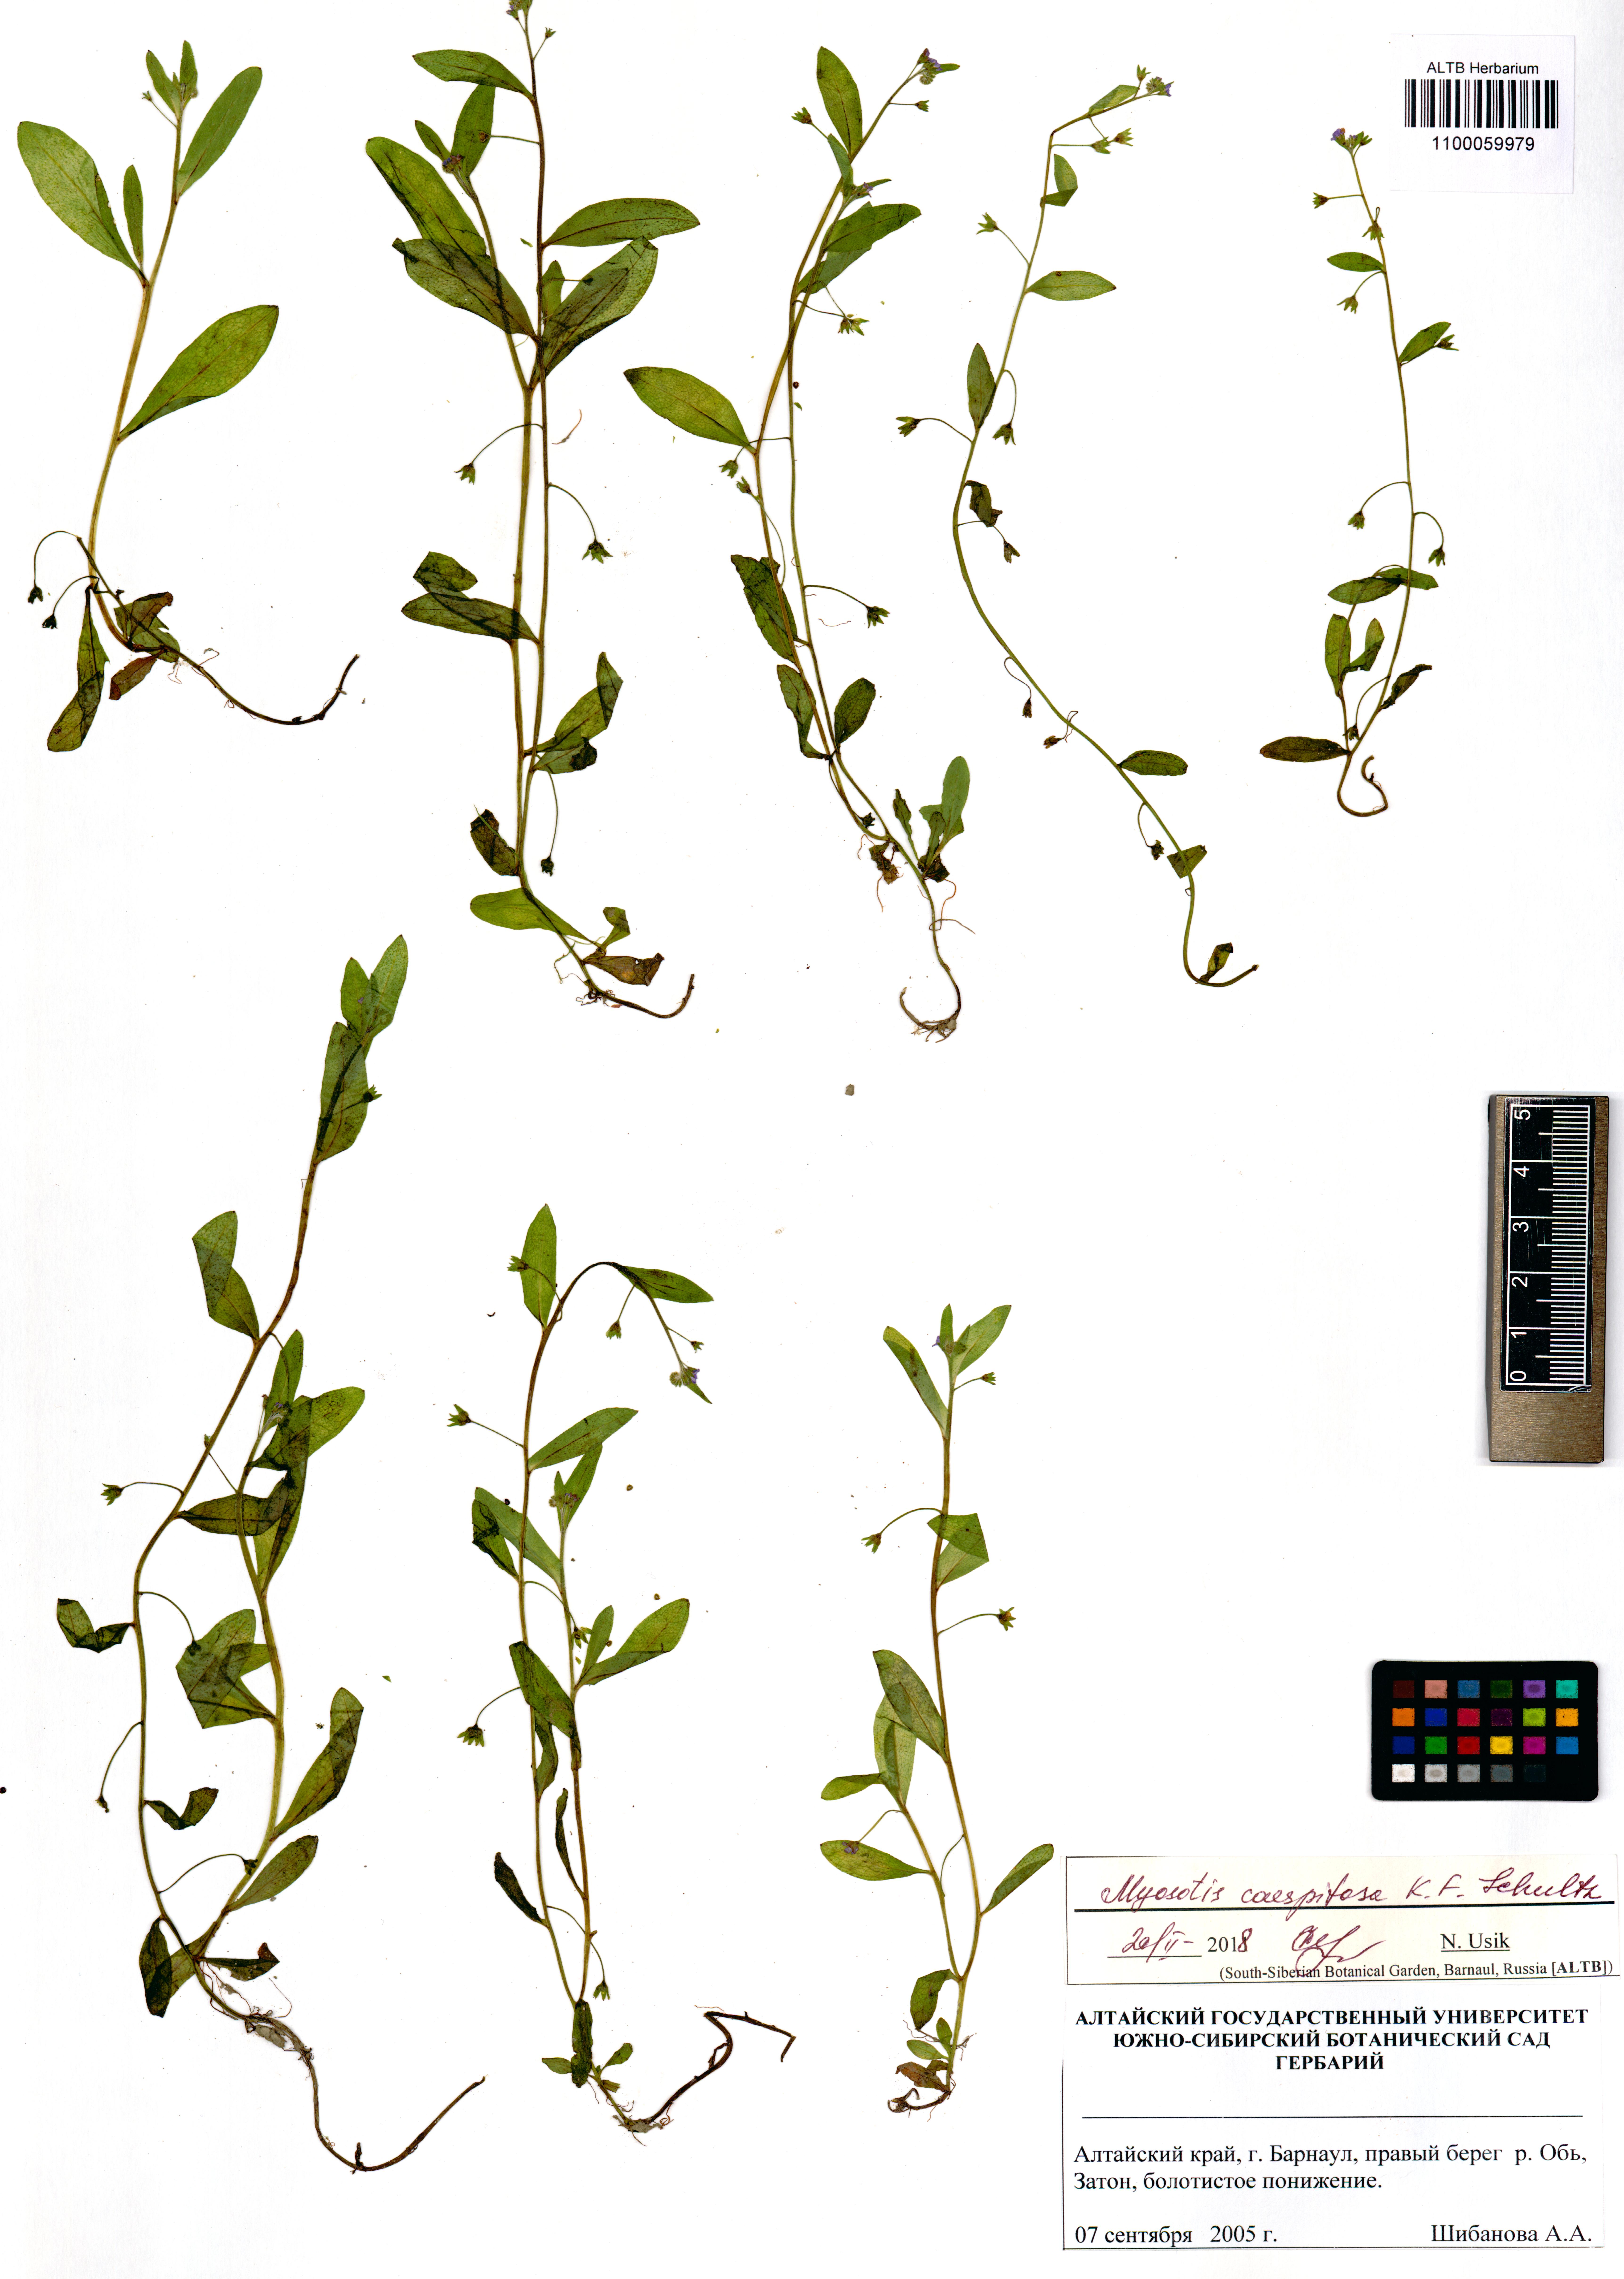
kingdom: Plantae
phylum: Tracheophyta
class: Magnoliopsida
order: Boraginales
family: Boraginaceae
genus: Myosotis
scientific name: Myosotis laxa
